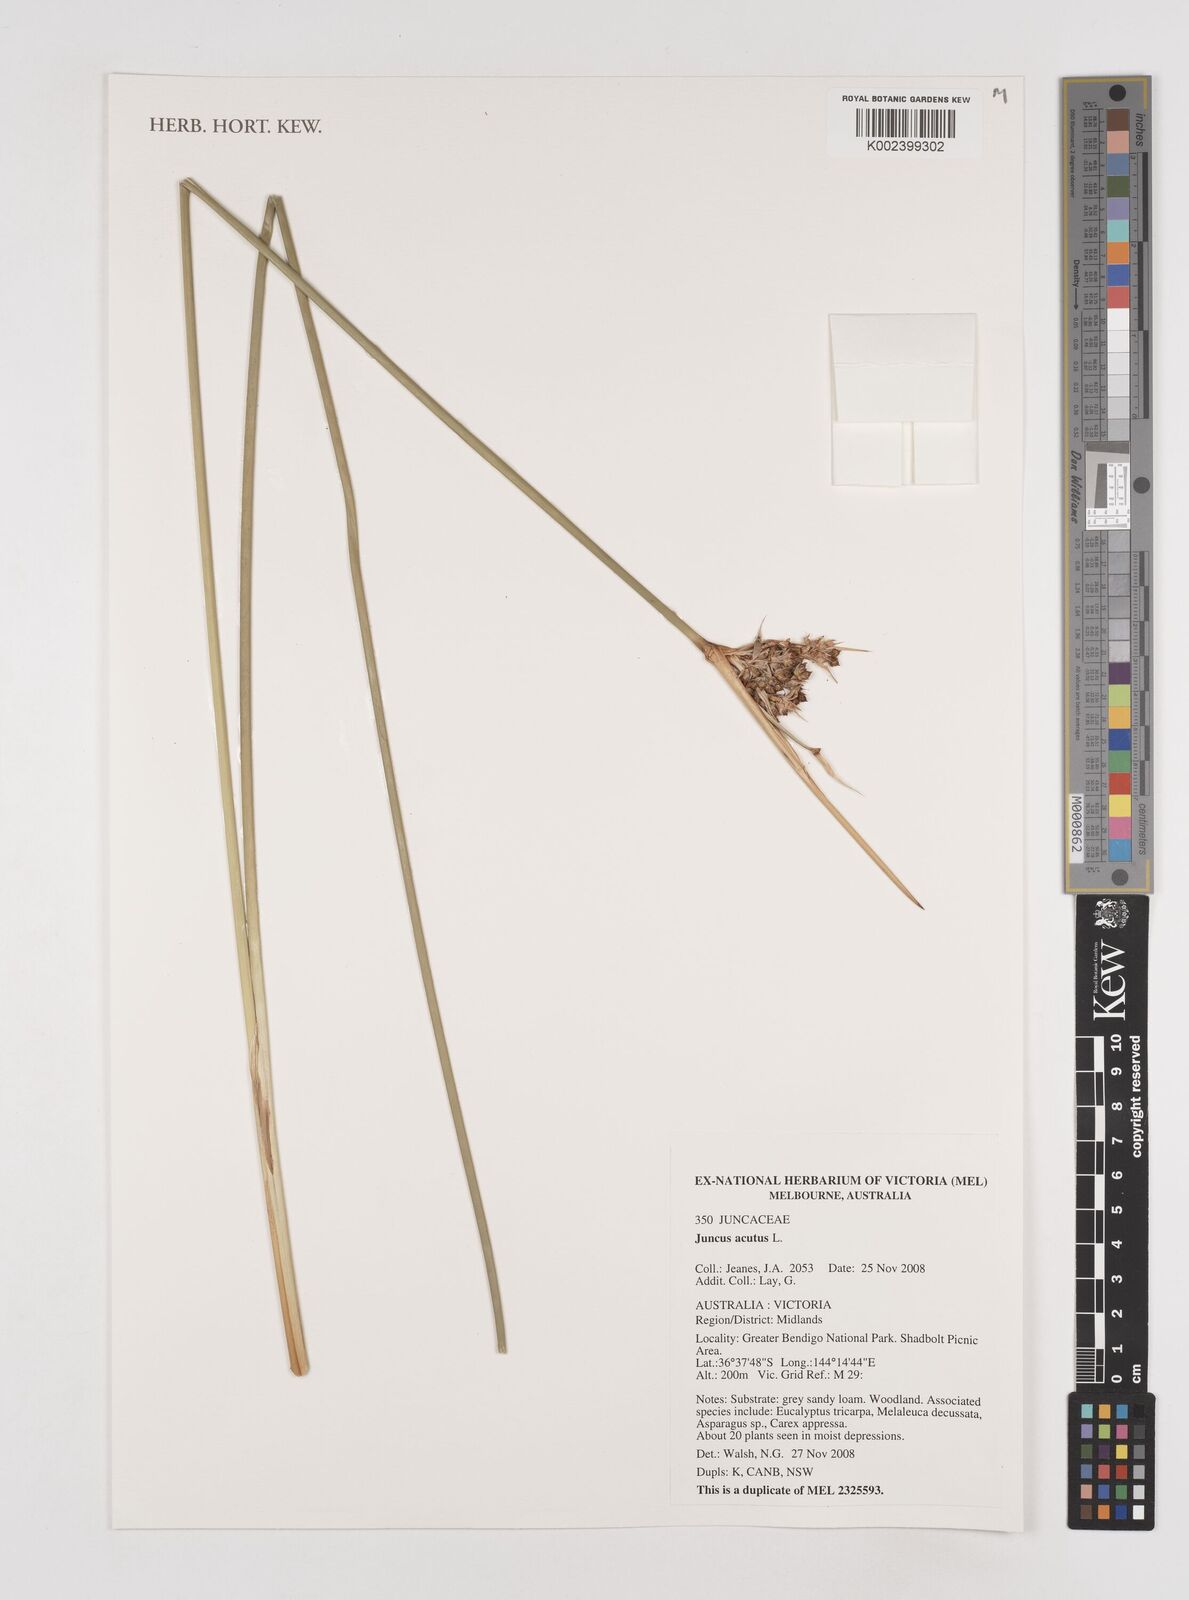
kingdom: Plantae
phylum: Tracheophyta
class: Liliopsida
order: Poales
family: Juncaceae
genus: Juncus
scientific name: Juncus acutus
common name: Sharp rush
